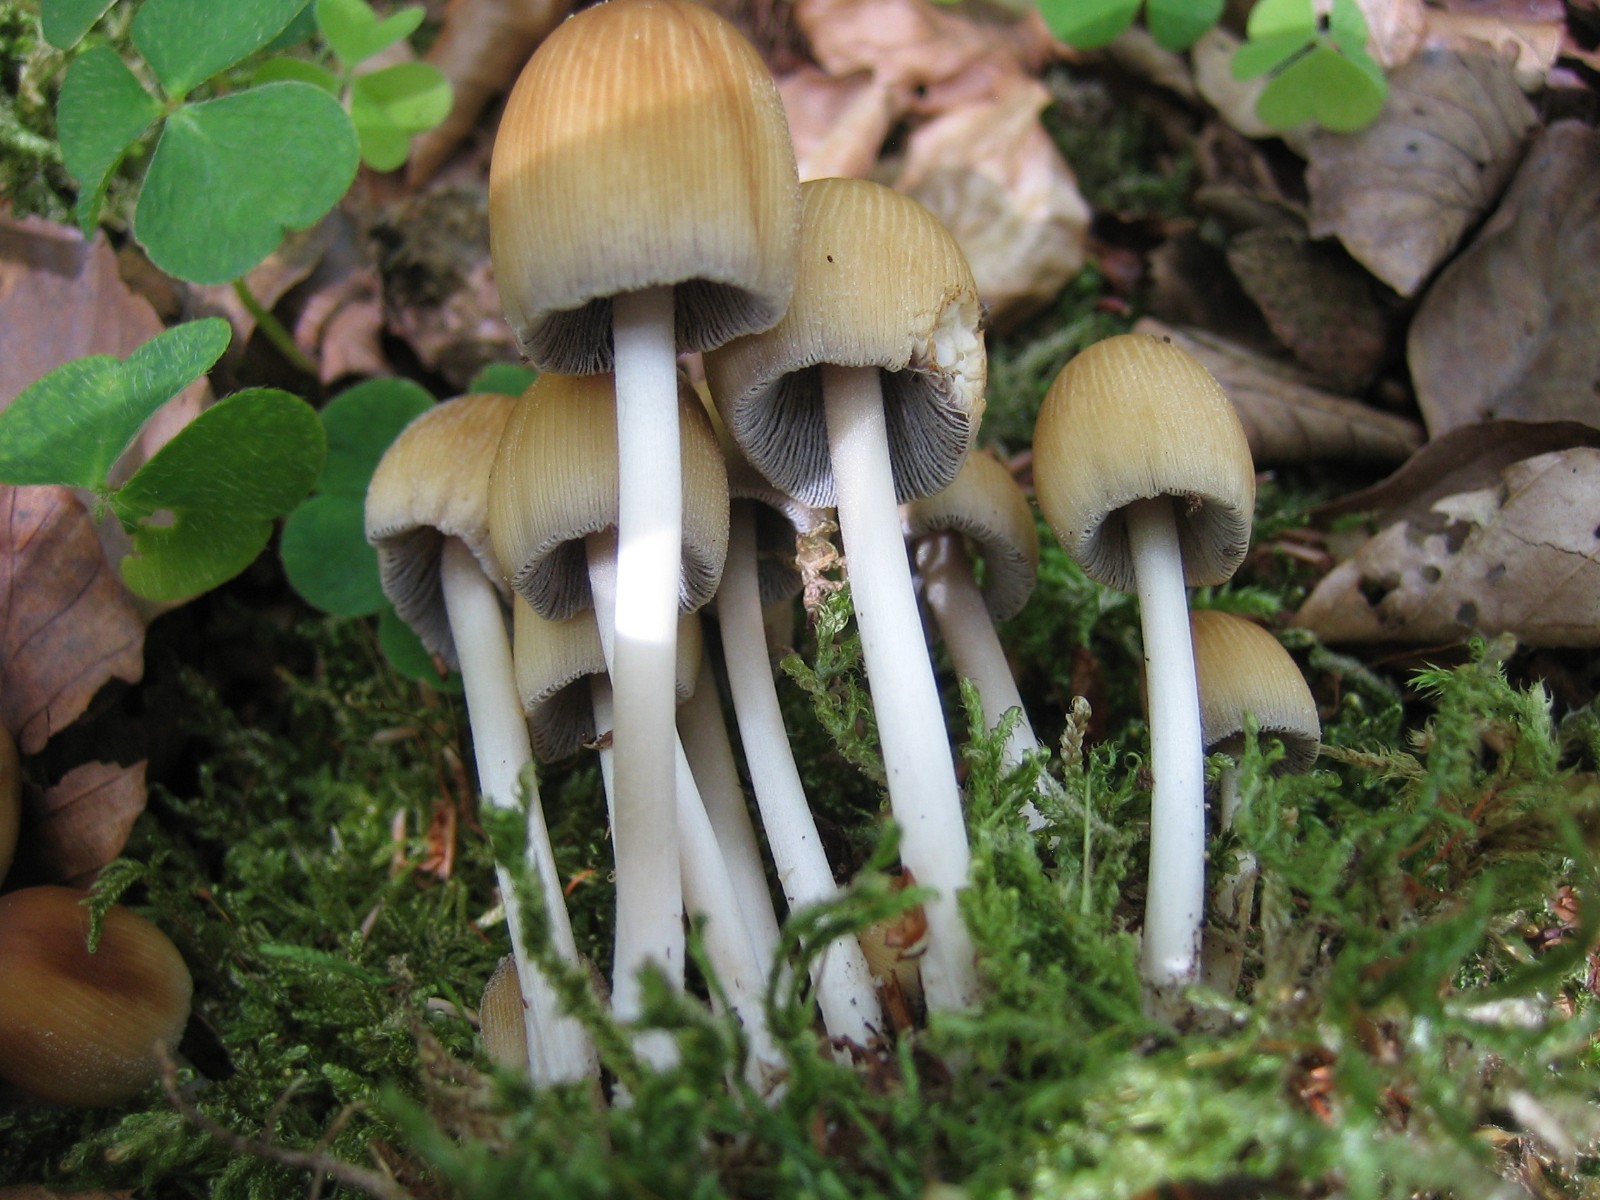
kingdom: Fungi
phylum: Basidiomycota
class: Agaricomycetes
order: Agaricales
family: Psathyrellaceae
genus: Coprinellus
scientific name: Coprinellus micaceus
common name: glimmer-blækhat
